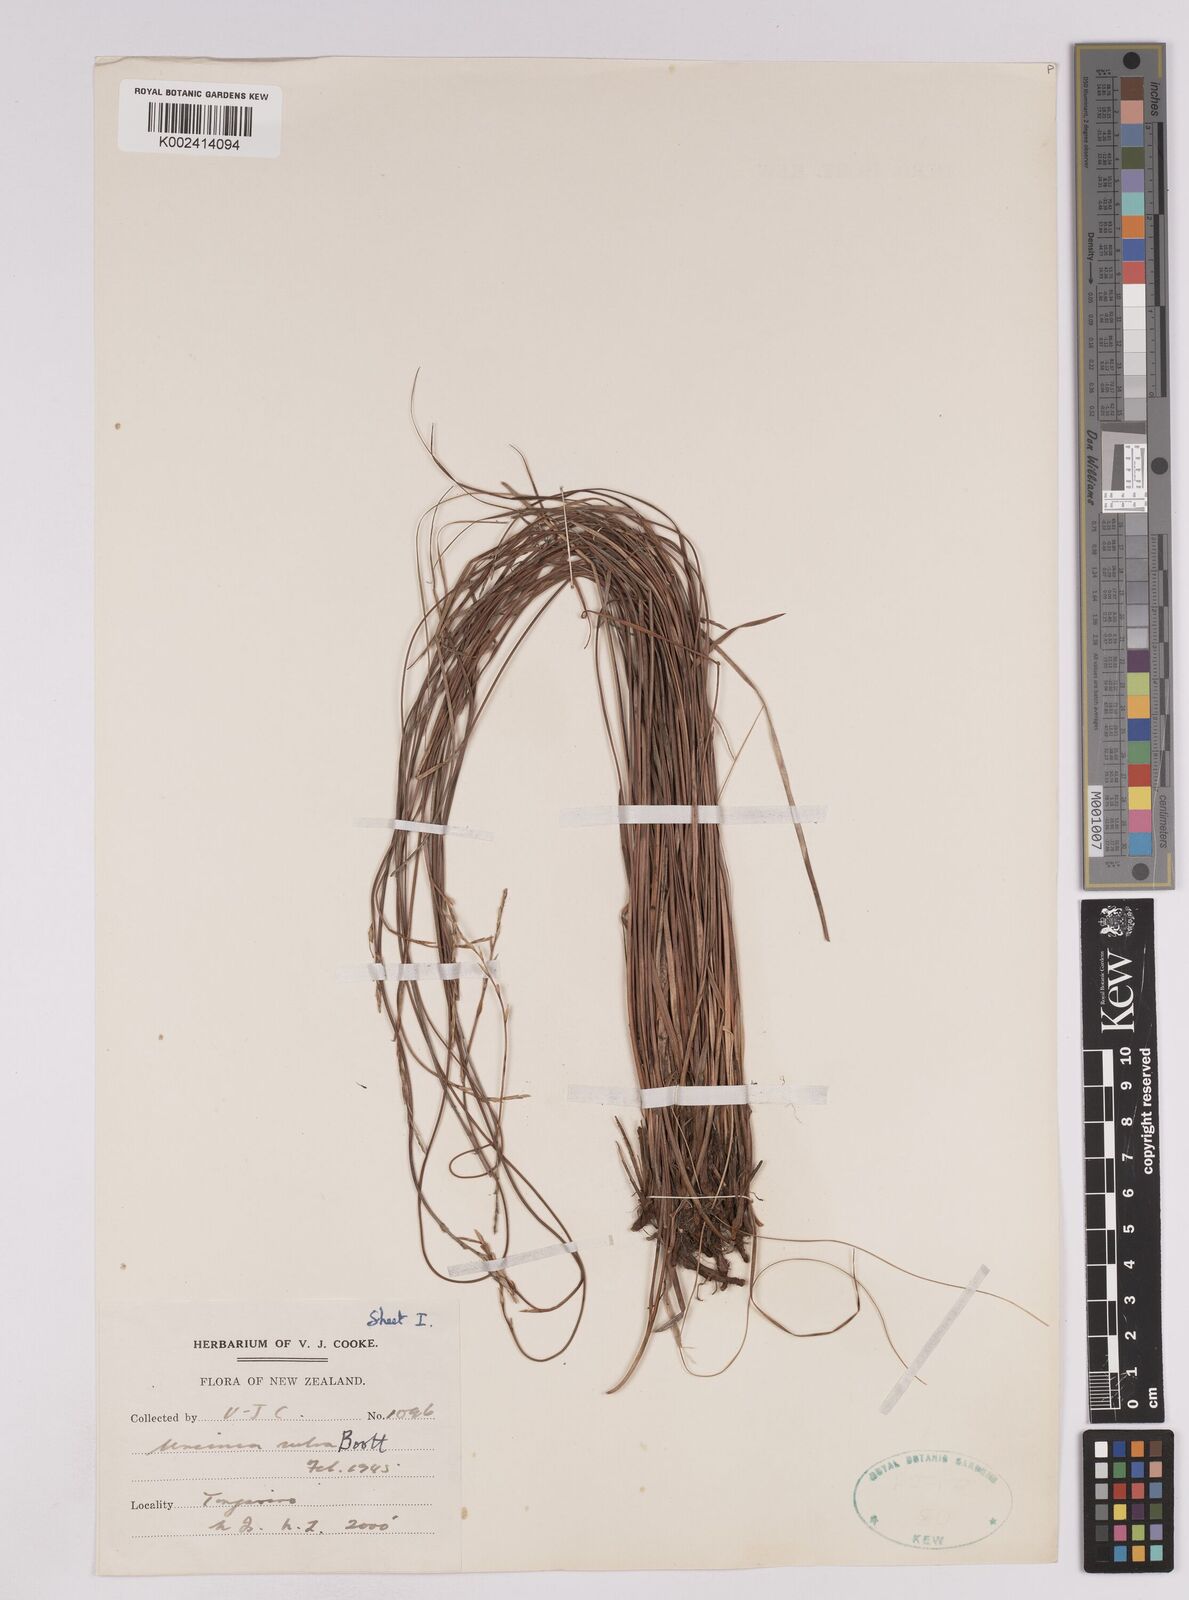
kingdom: Plantae
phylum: Tracheophyta
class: Liliopsida
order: Poales
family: Cyperaceae
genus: Carex
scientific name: Carex punicea
